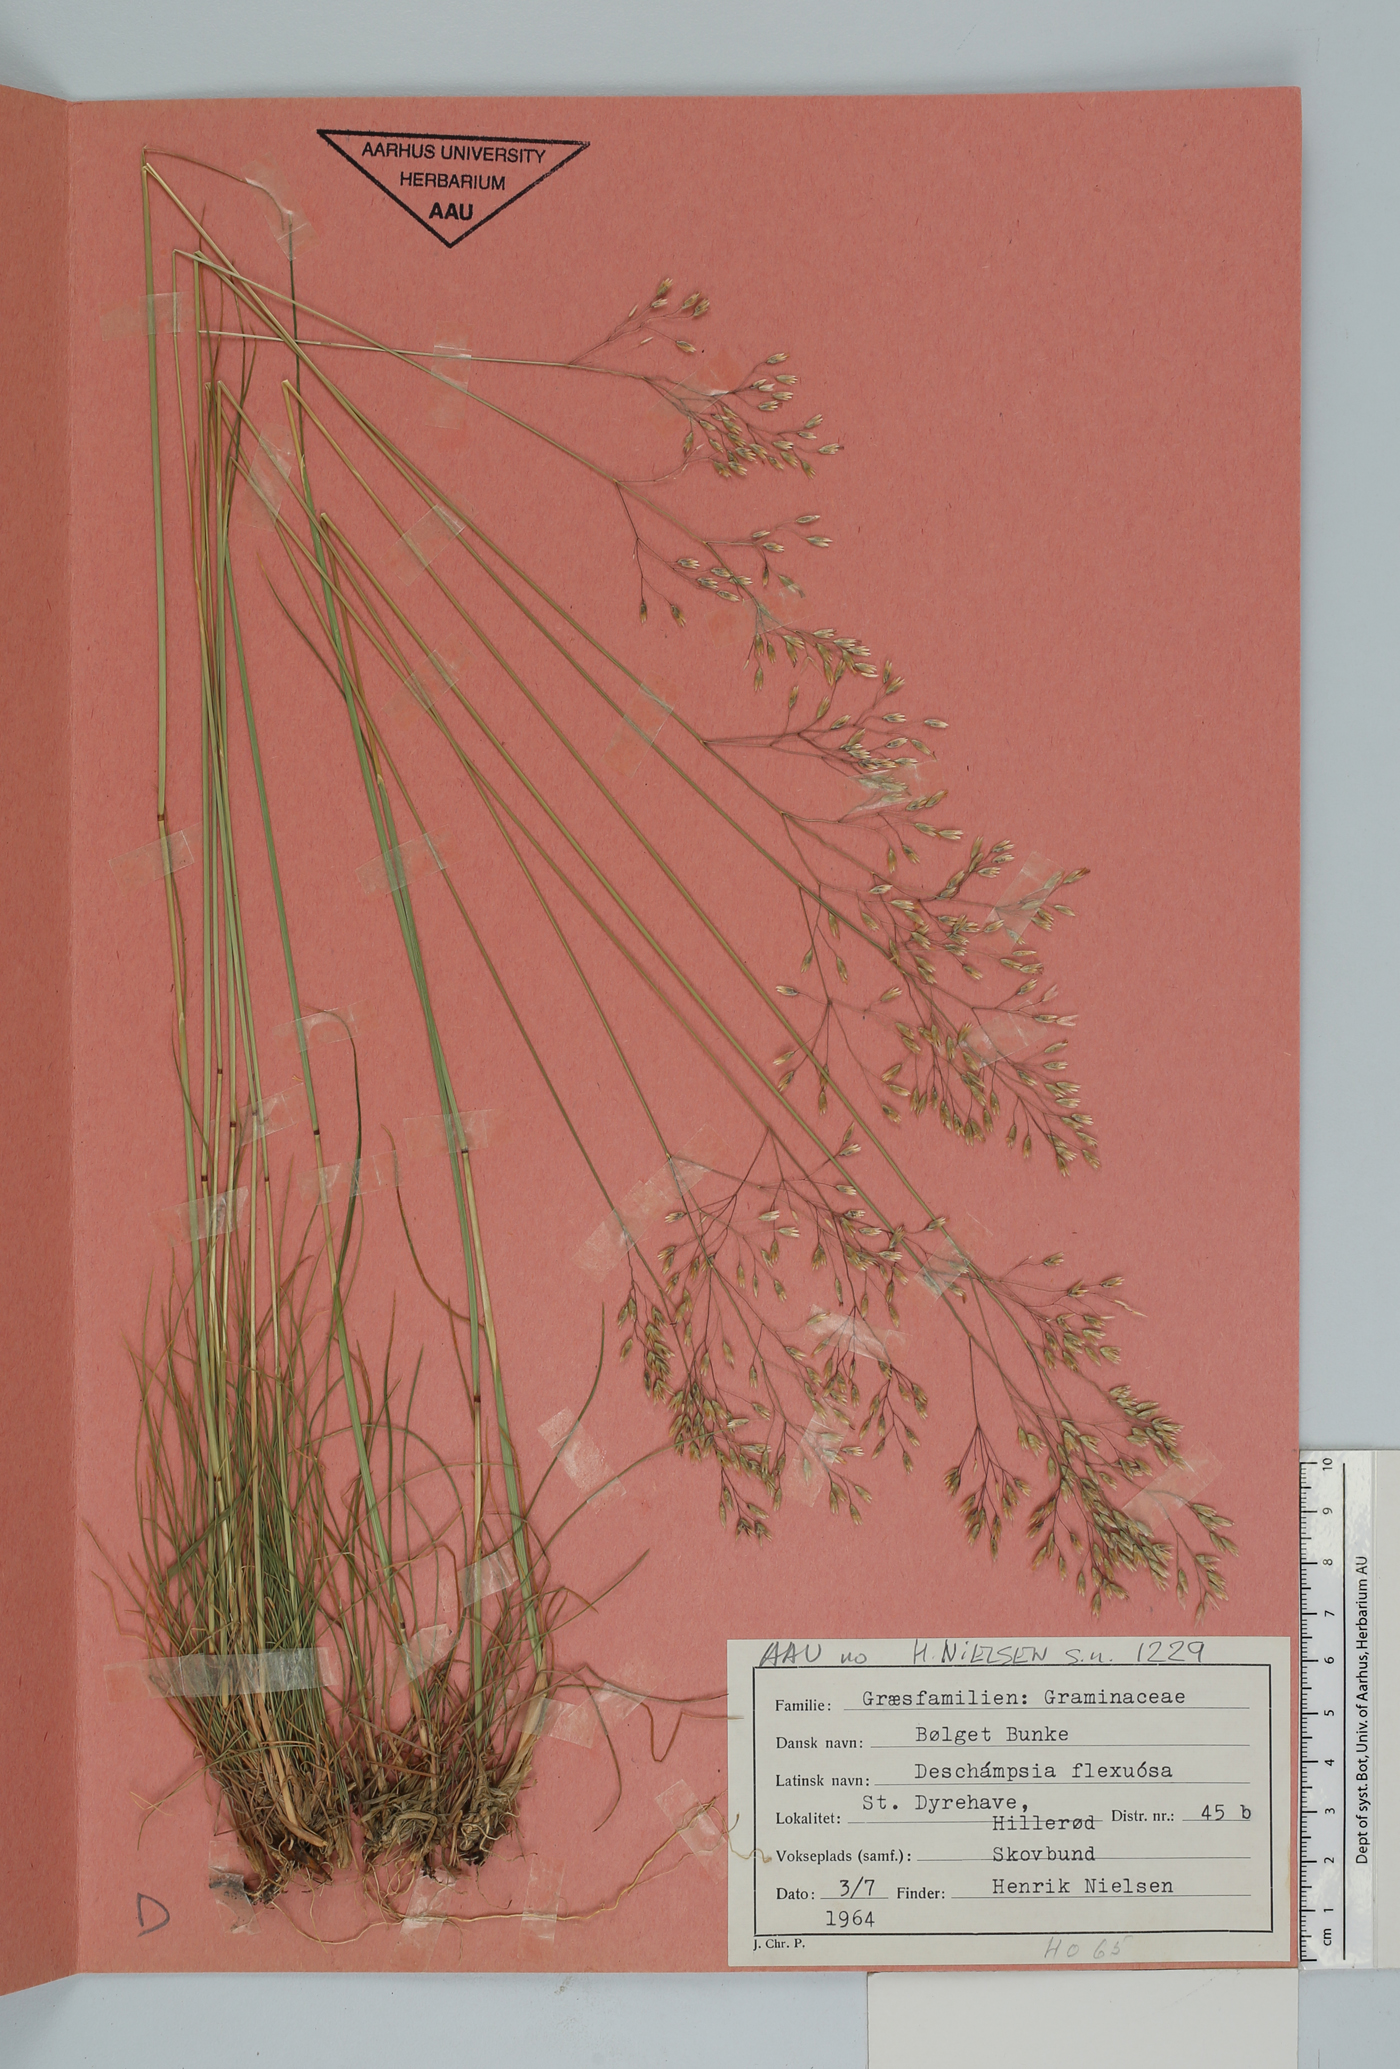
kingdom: Plantae
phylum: Tracheophyta
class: Liliopsida
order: Poales
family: Poaceae
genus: Avenella
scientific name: Avenella flexuosa
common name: Wavy hairgrass
